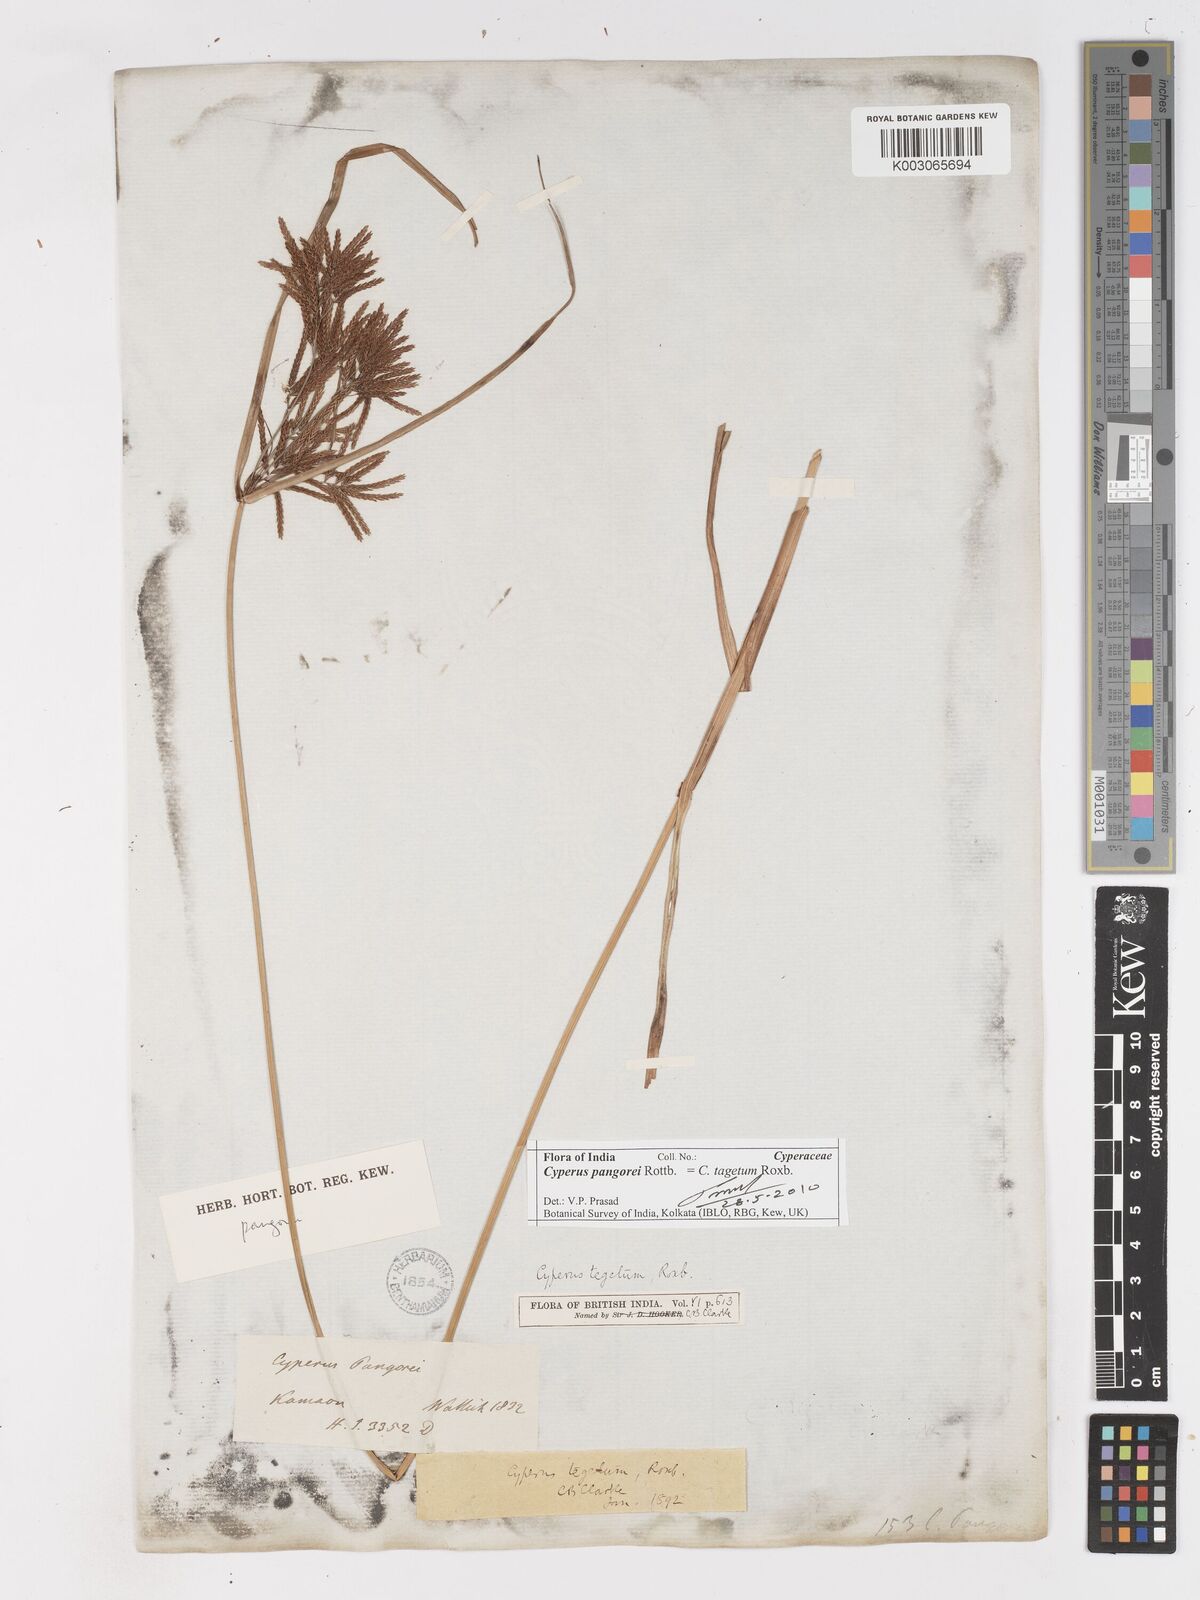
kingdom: Plantae
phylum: Tracheophyta
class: Liliopsida
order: Poales
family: Cyperaceae
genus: Cyperus
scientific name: Cyperus pangorei
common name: Mat sedge
